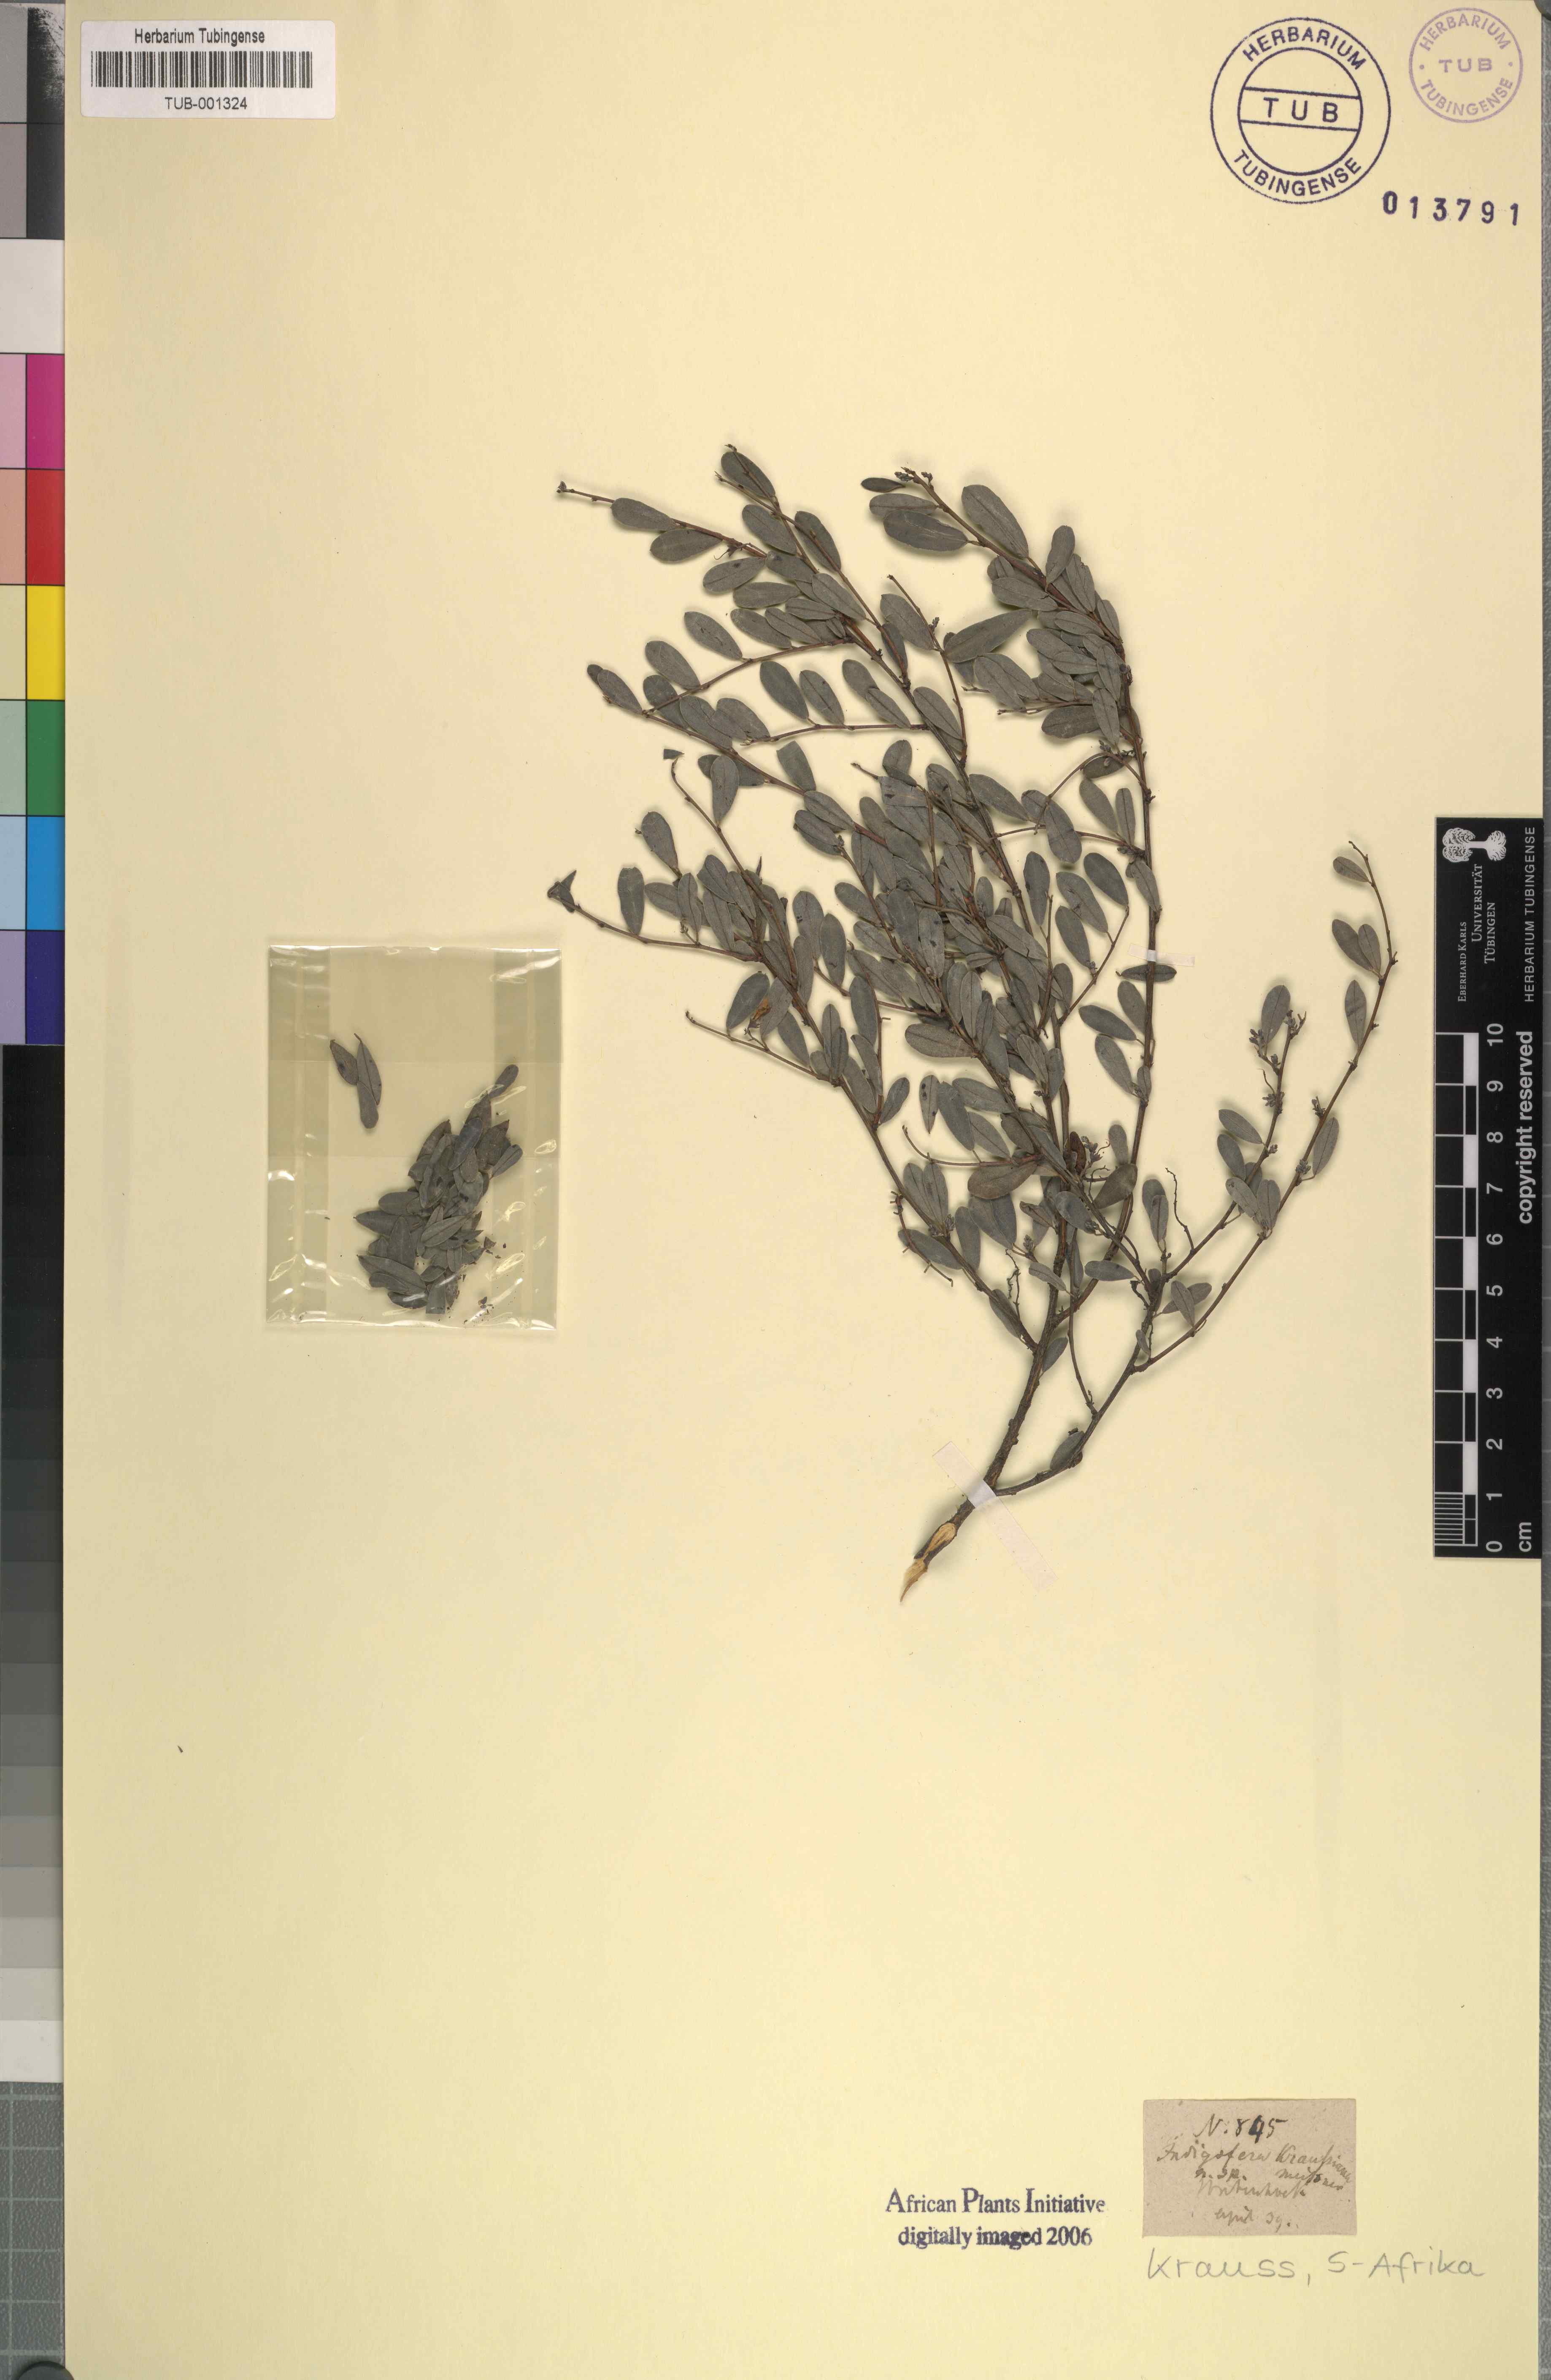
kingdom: Plantae
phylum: Tracheophyta
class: Magnoliopsida
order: Fabales
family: Fabaceae
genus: Indigofera
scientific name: Indigofera denudata
